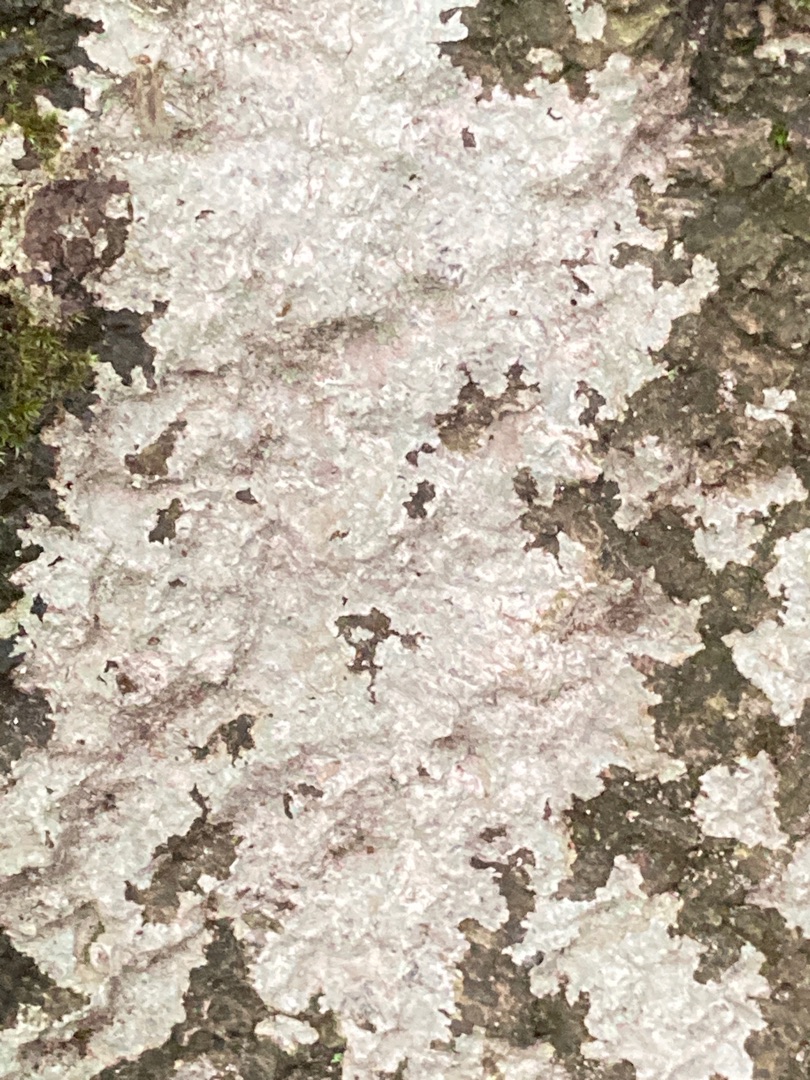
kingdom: Fungi
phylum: Ascomycota
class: Lecanoromycetes
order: Ostropales
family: Phlyctidaceae
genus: Phlyctis
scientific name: Phlyctis argena
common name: Almindelig sølvlav
